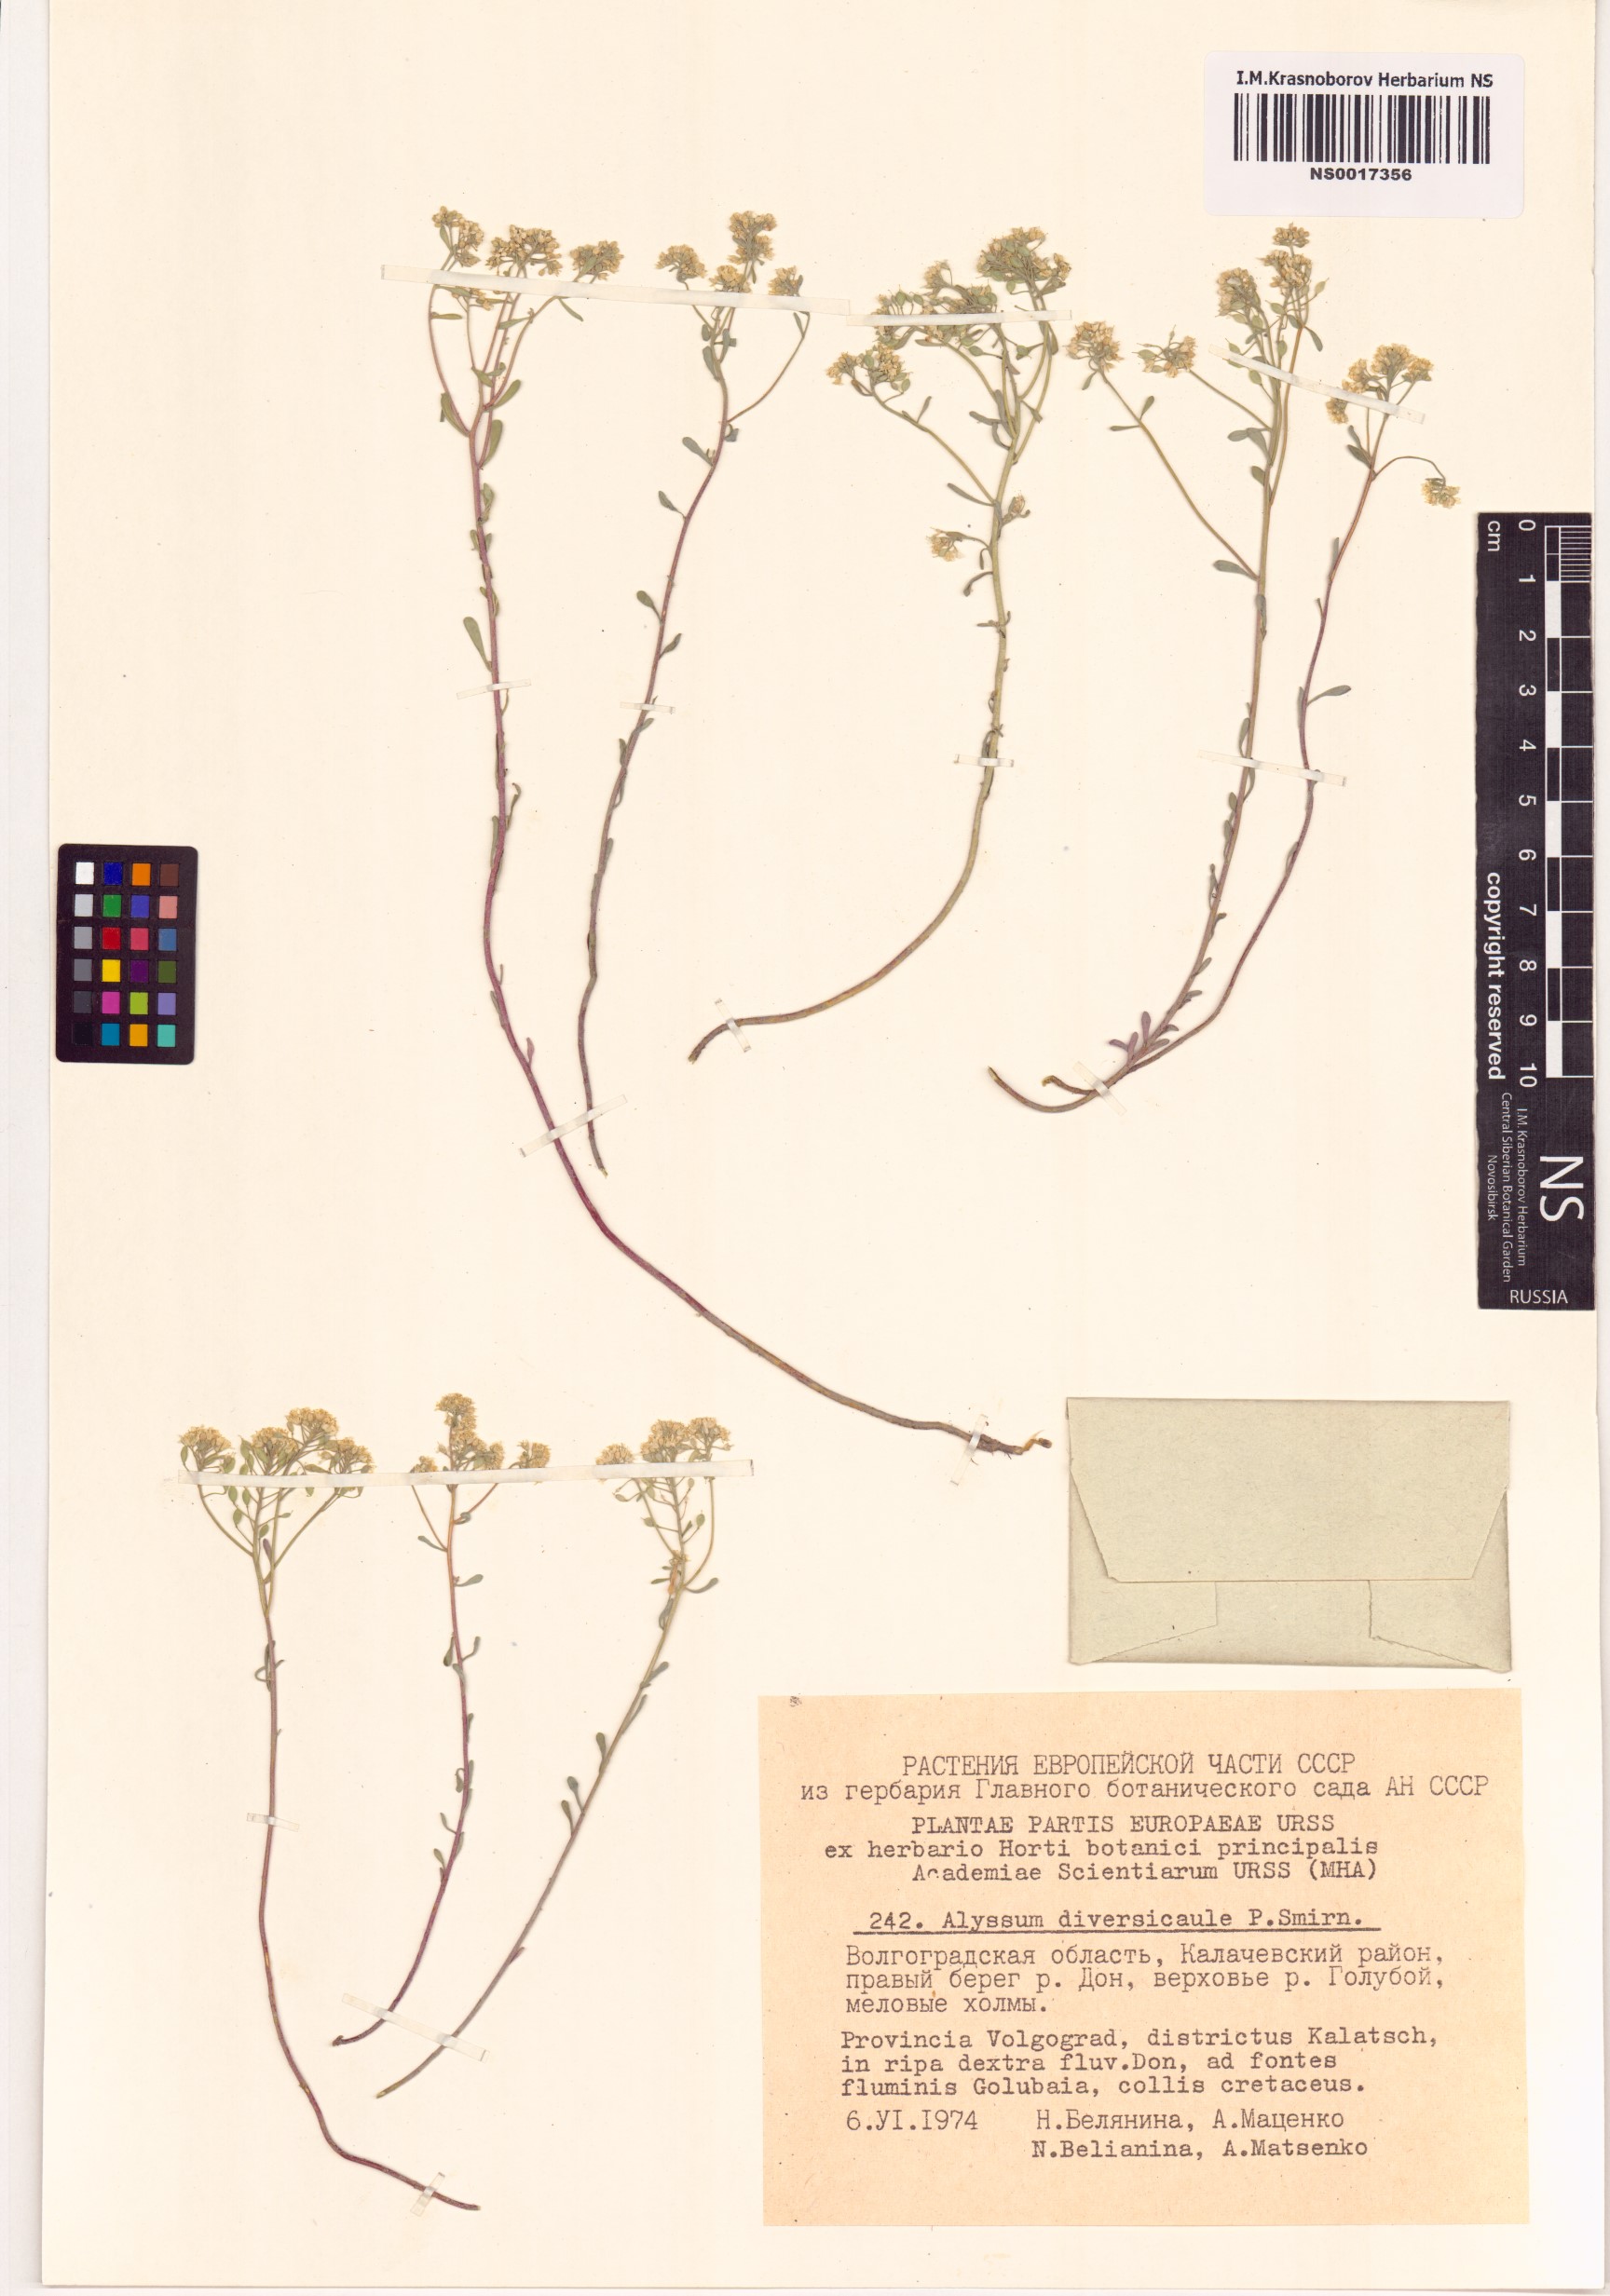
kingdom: Plantae
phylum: Tracheophyta
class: Magnoliopsida
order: Brassicales
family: Brassicaceae
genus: Odontarrhena
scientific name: Odontarrhena tortuosa
